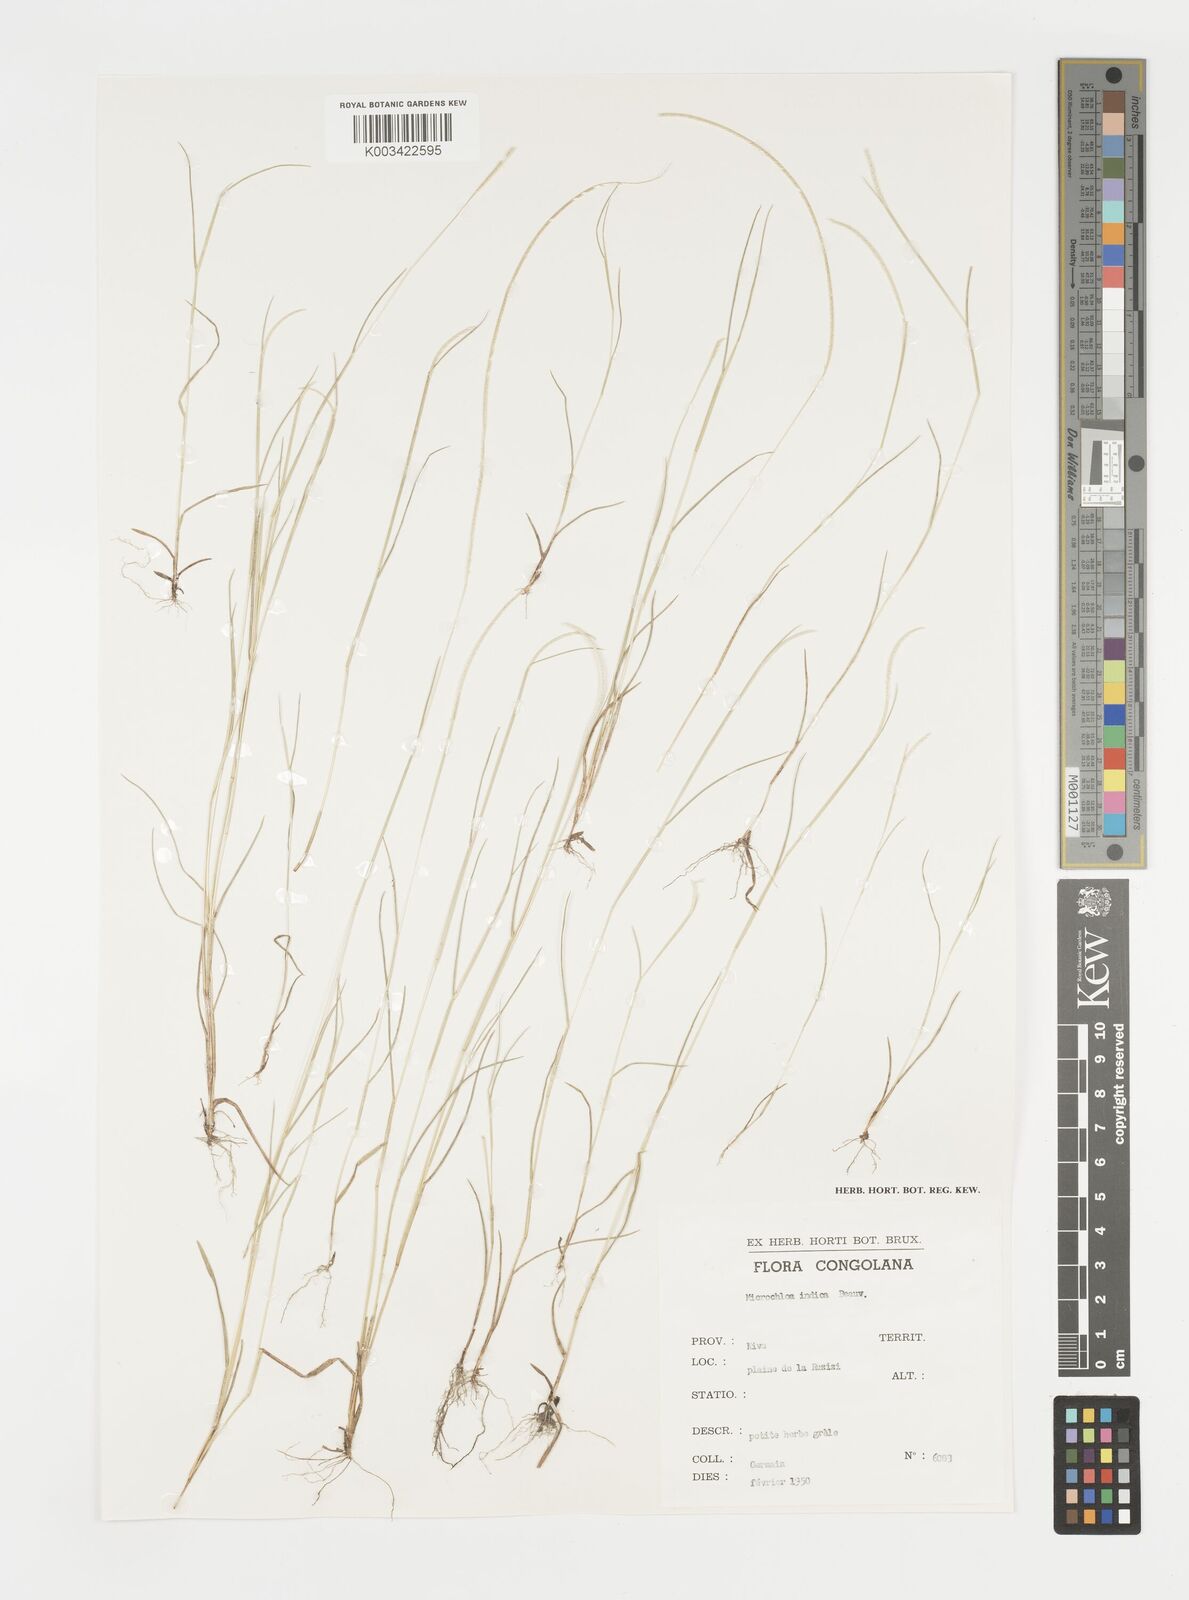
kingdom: Plantae
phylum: Tracheophyta
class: Liliopsida
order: Poales
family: Poaceae
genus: Microchloa
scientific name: Microchloa indica
